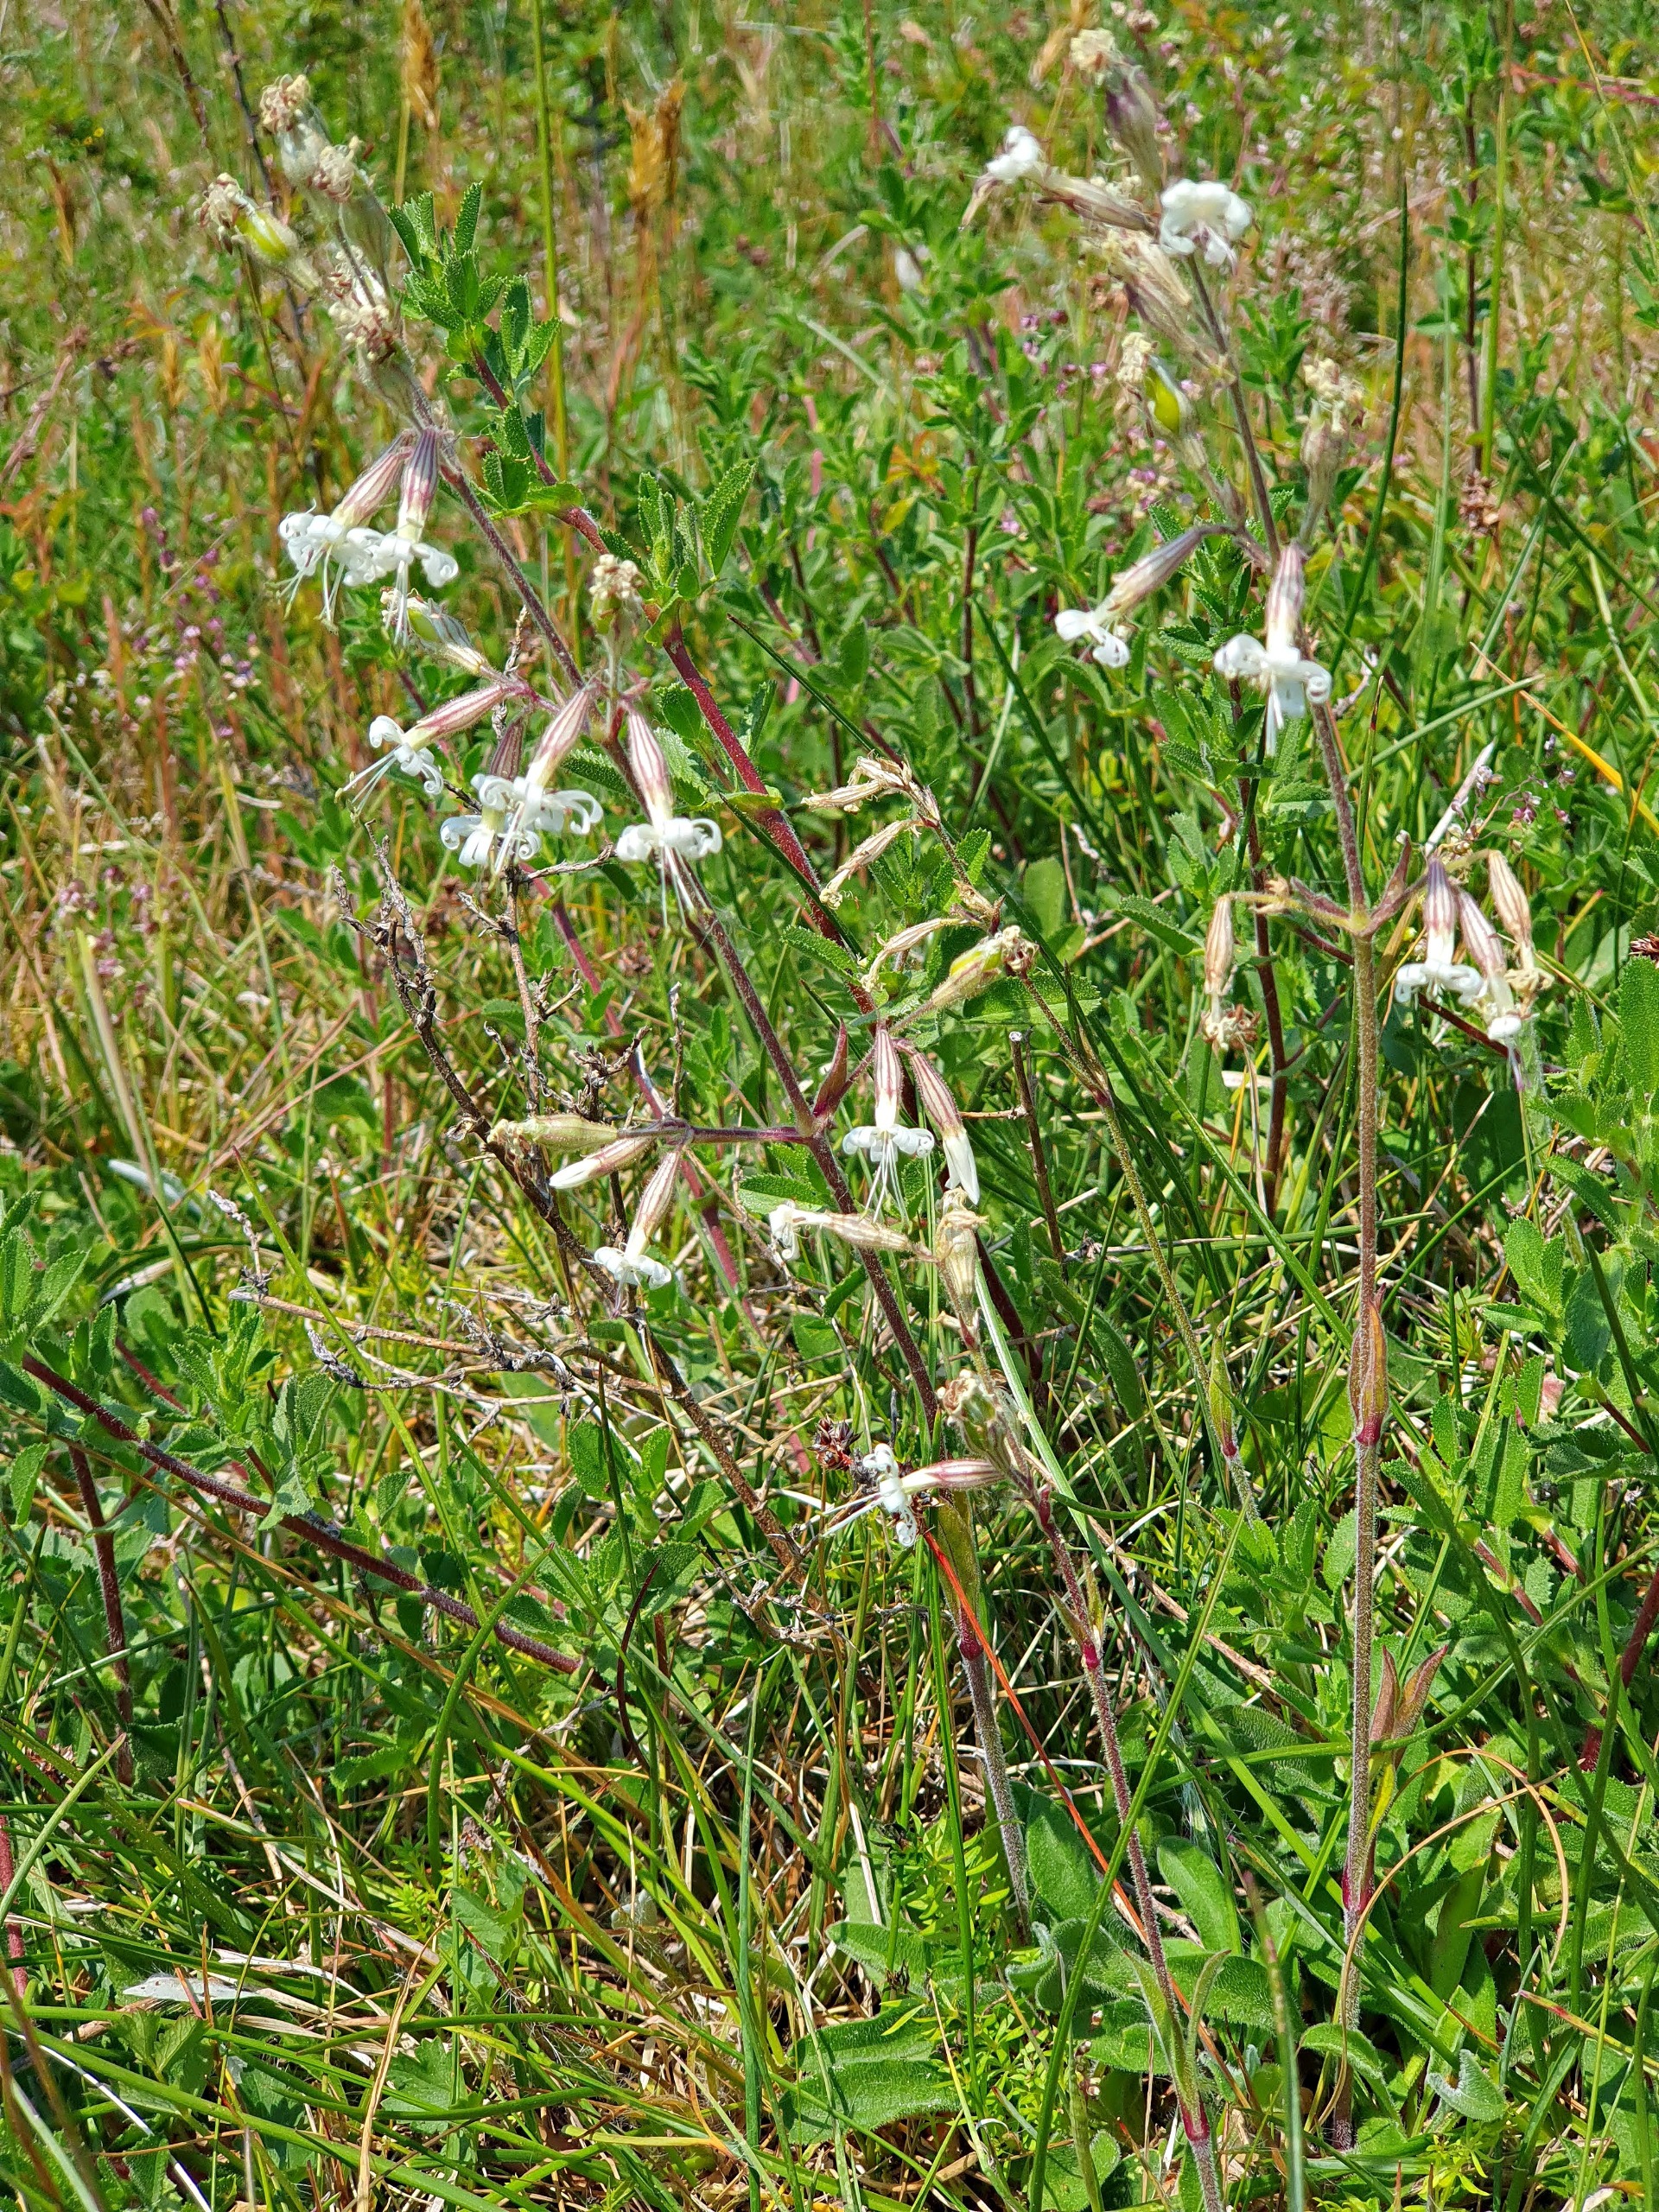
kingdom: Plantae
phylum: Tracheophyta
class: Magnoliopsida
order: Caryophyllales
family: Caryophyllaceae
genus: Silene
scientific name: Silene nutans
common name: Nikkende limurt
